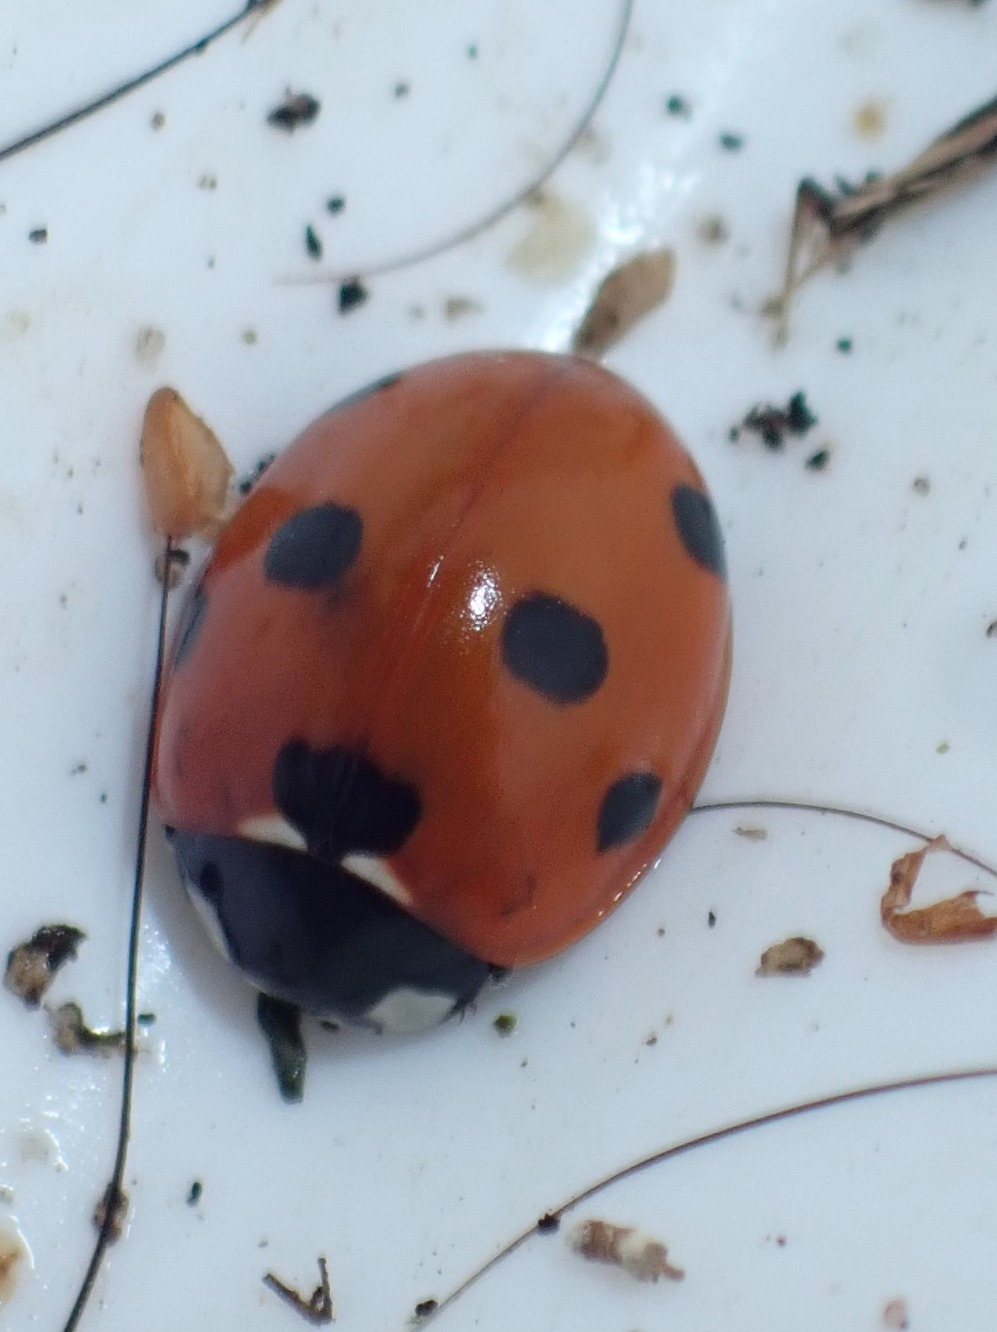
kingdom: Animalia
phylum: Arthropoda
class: Insecta
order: Coleoptera
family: Coccinellidae
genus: Coccinella
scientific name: Coccinella septempunctata
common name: Syvplettet mariehøne
